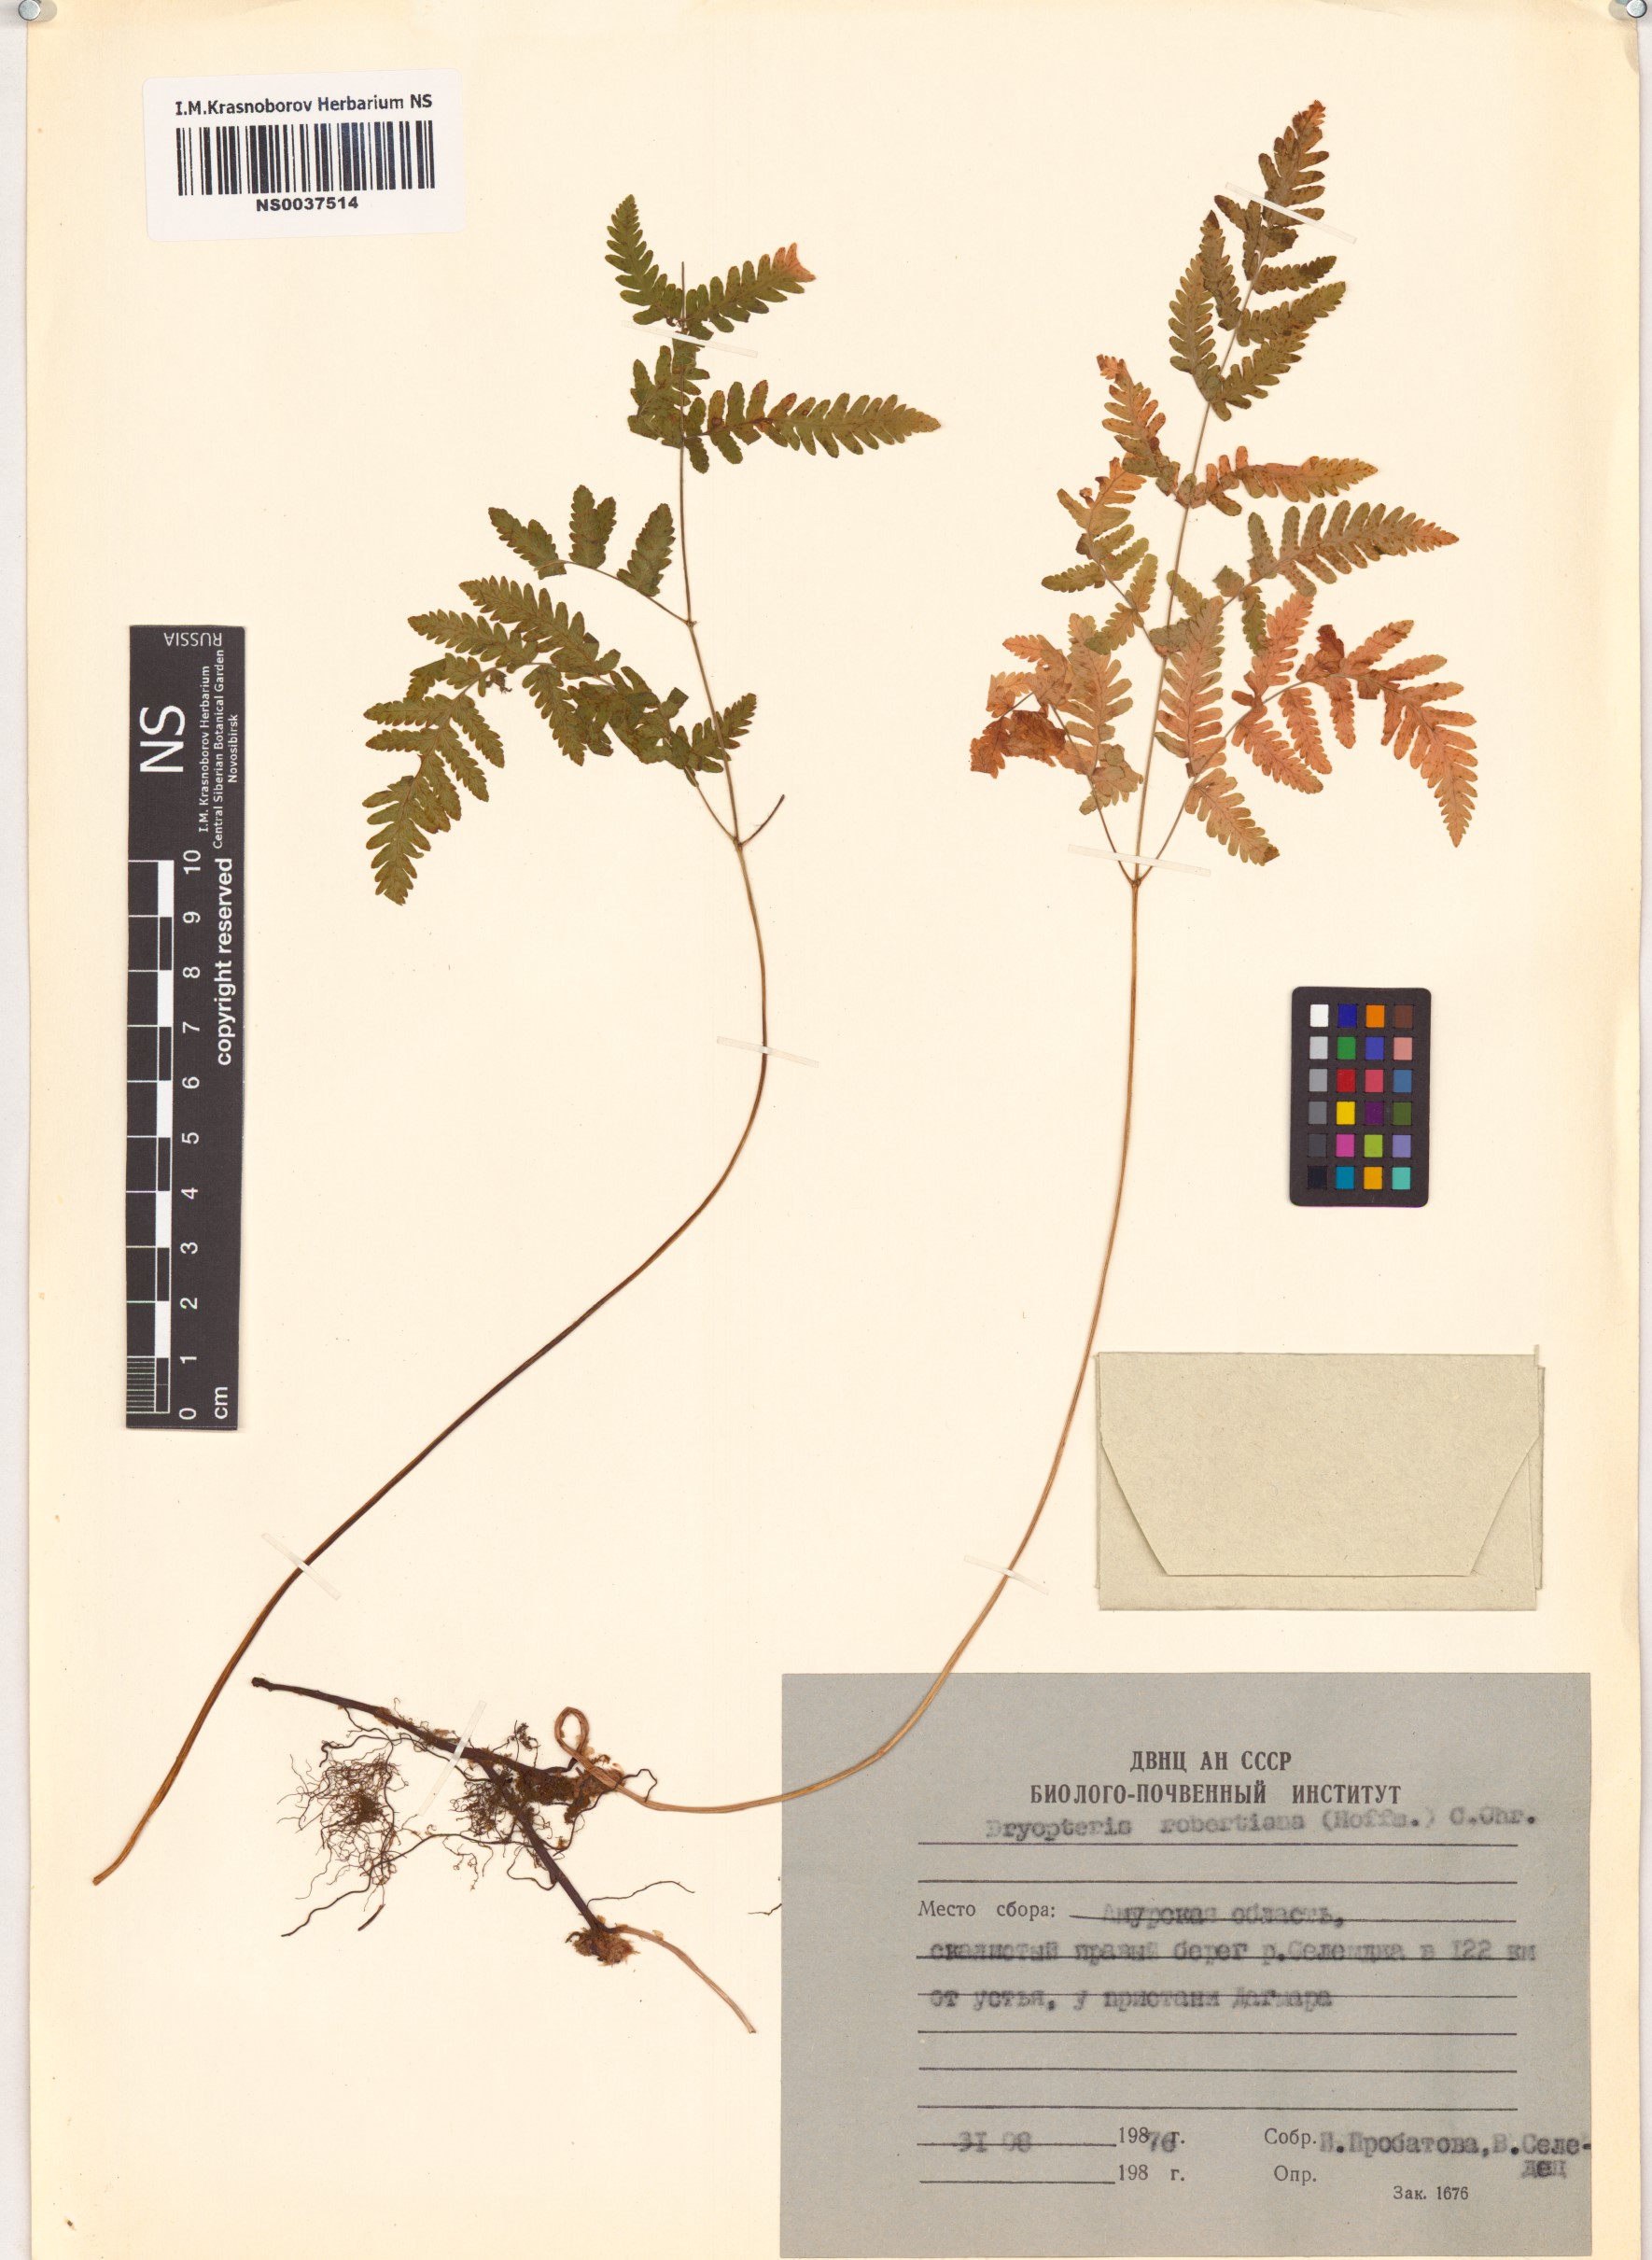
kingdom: Plantae
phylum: Tracheophyta
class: Polypodiopsida
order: Polypodiales
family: Cystopteridaceae
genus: Gymnocarpium
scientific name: Gymnocarpium robertianum
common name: Limestone fern
